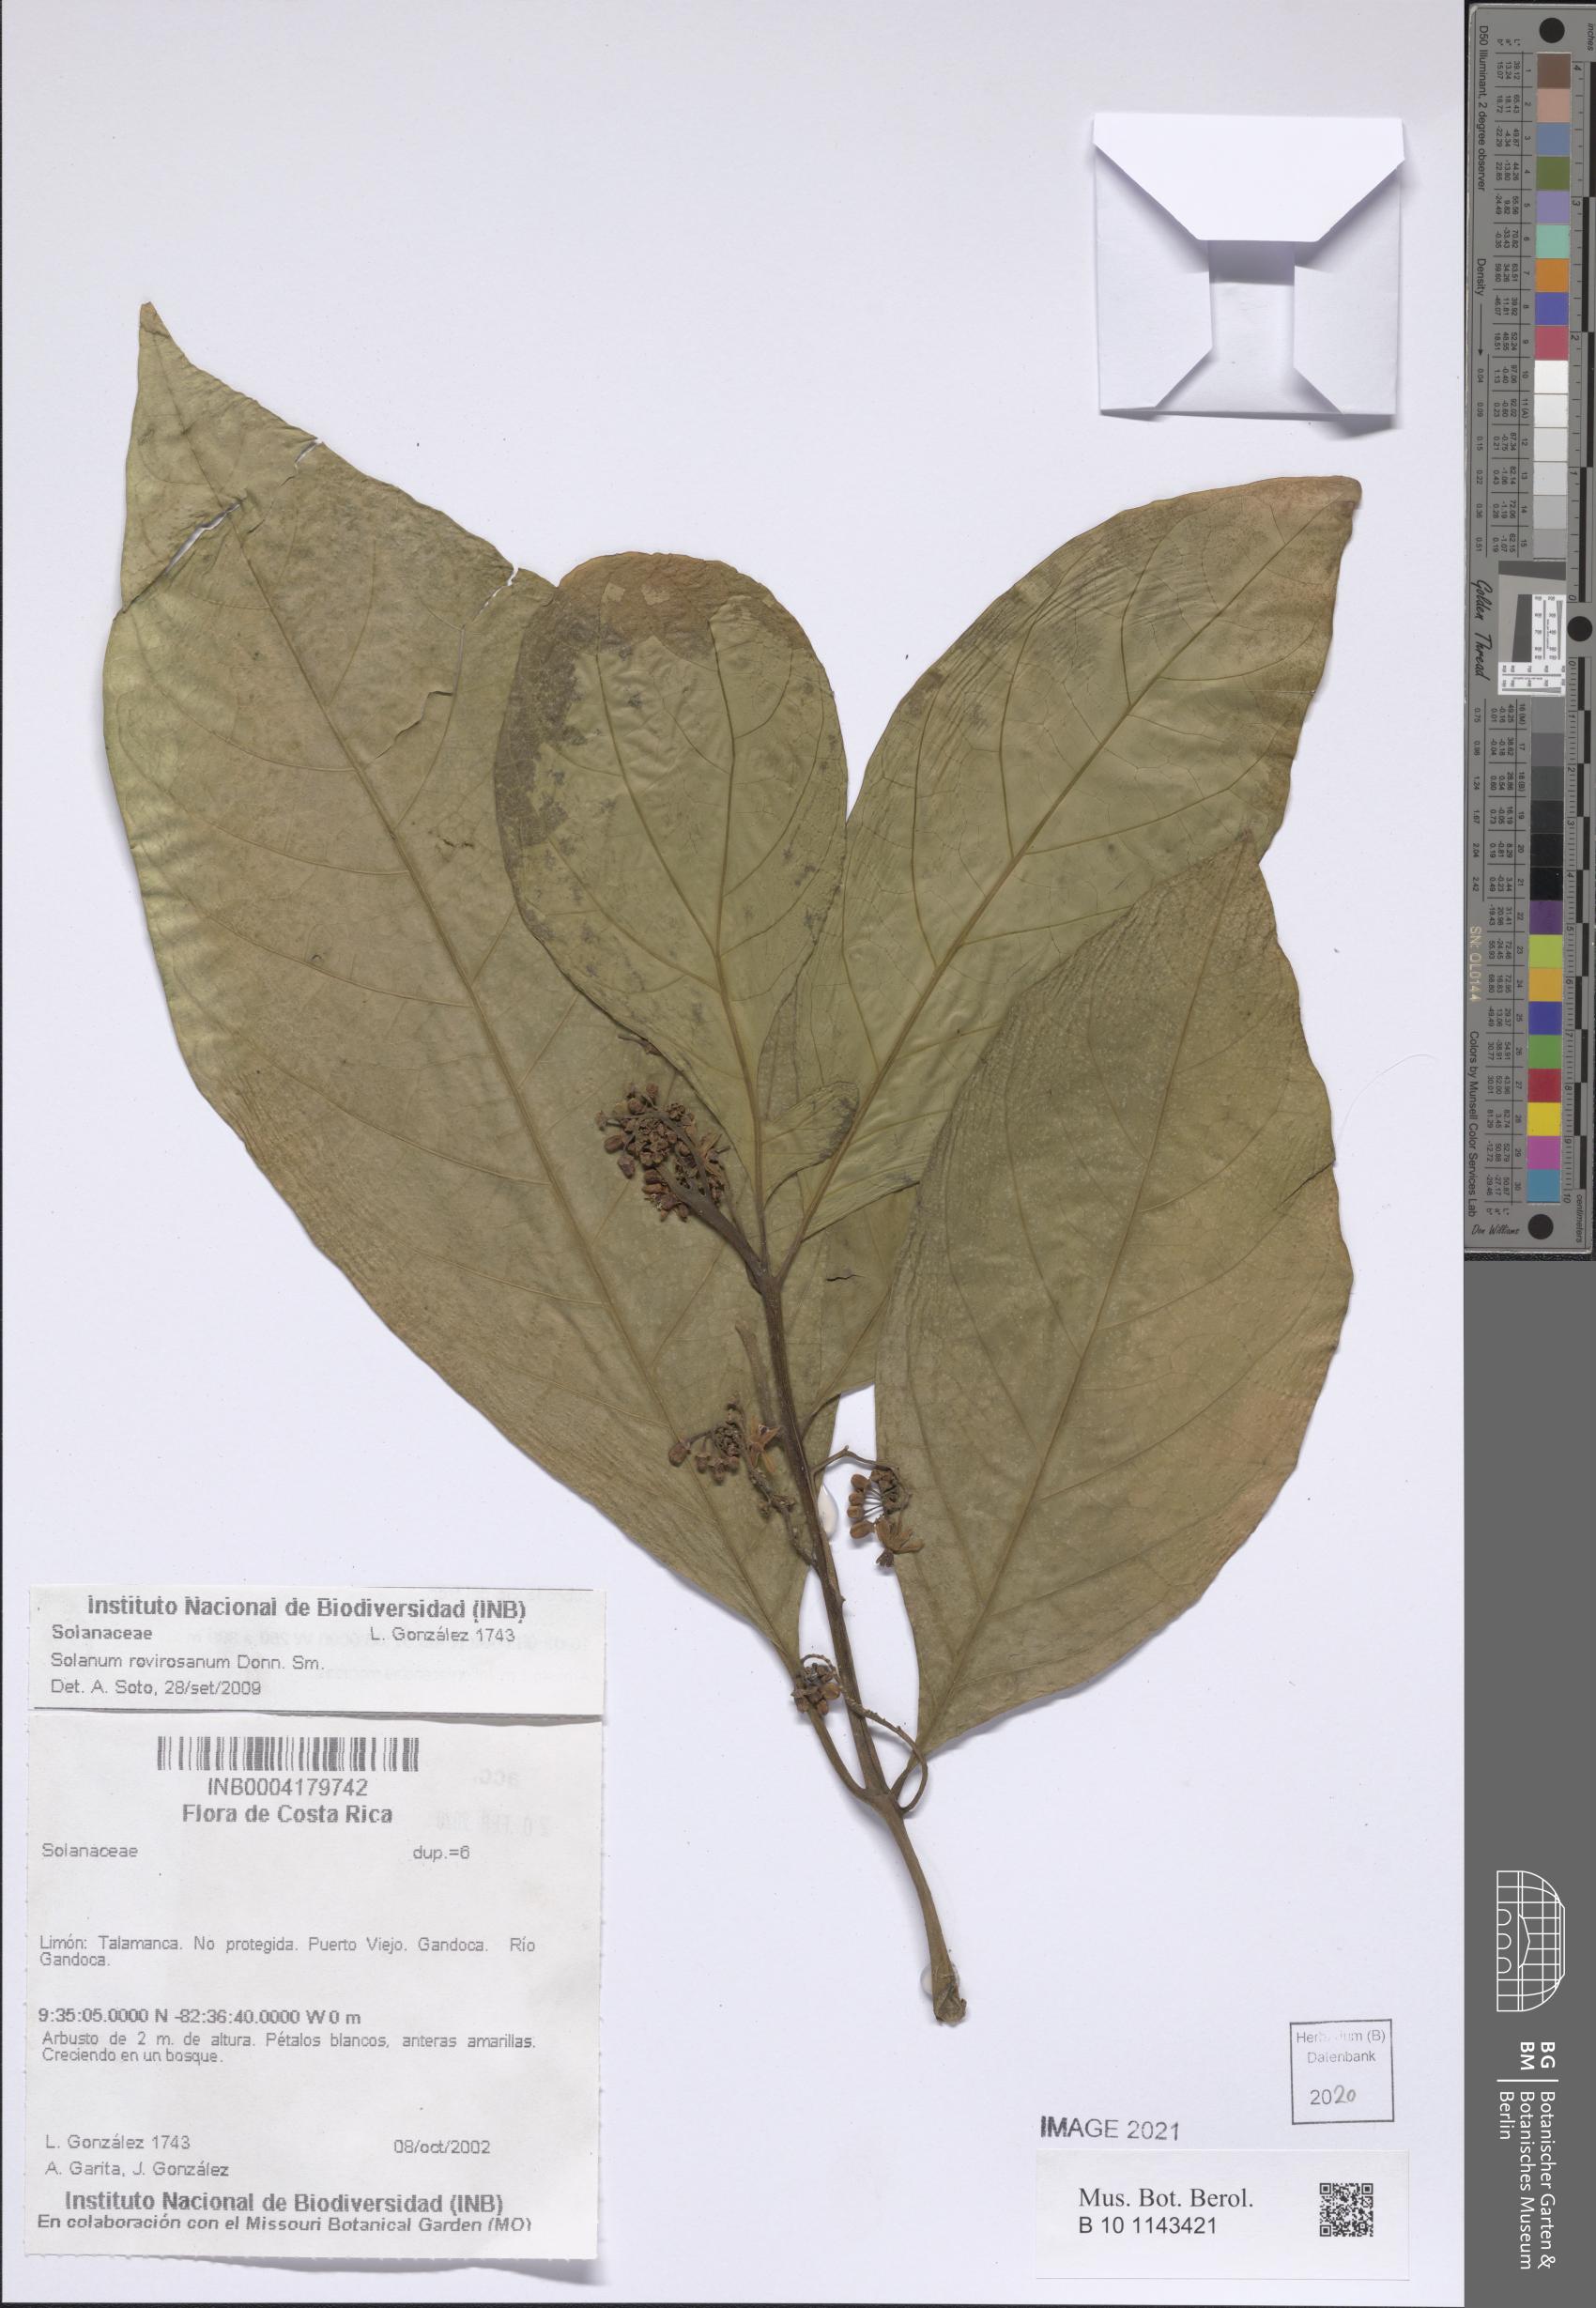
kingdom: Plantae
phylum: Tracheophyta
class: Magnoliopsida
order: Solanales
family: Solanaceae
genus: Solanum
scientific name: Solanum rovirosanum
